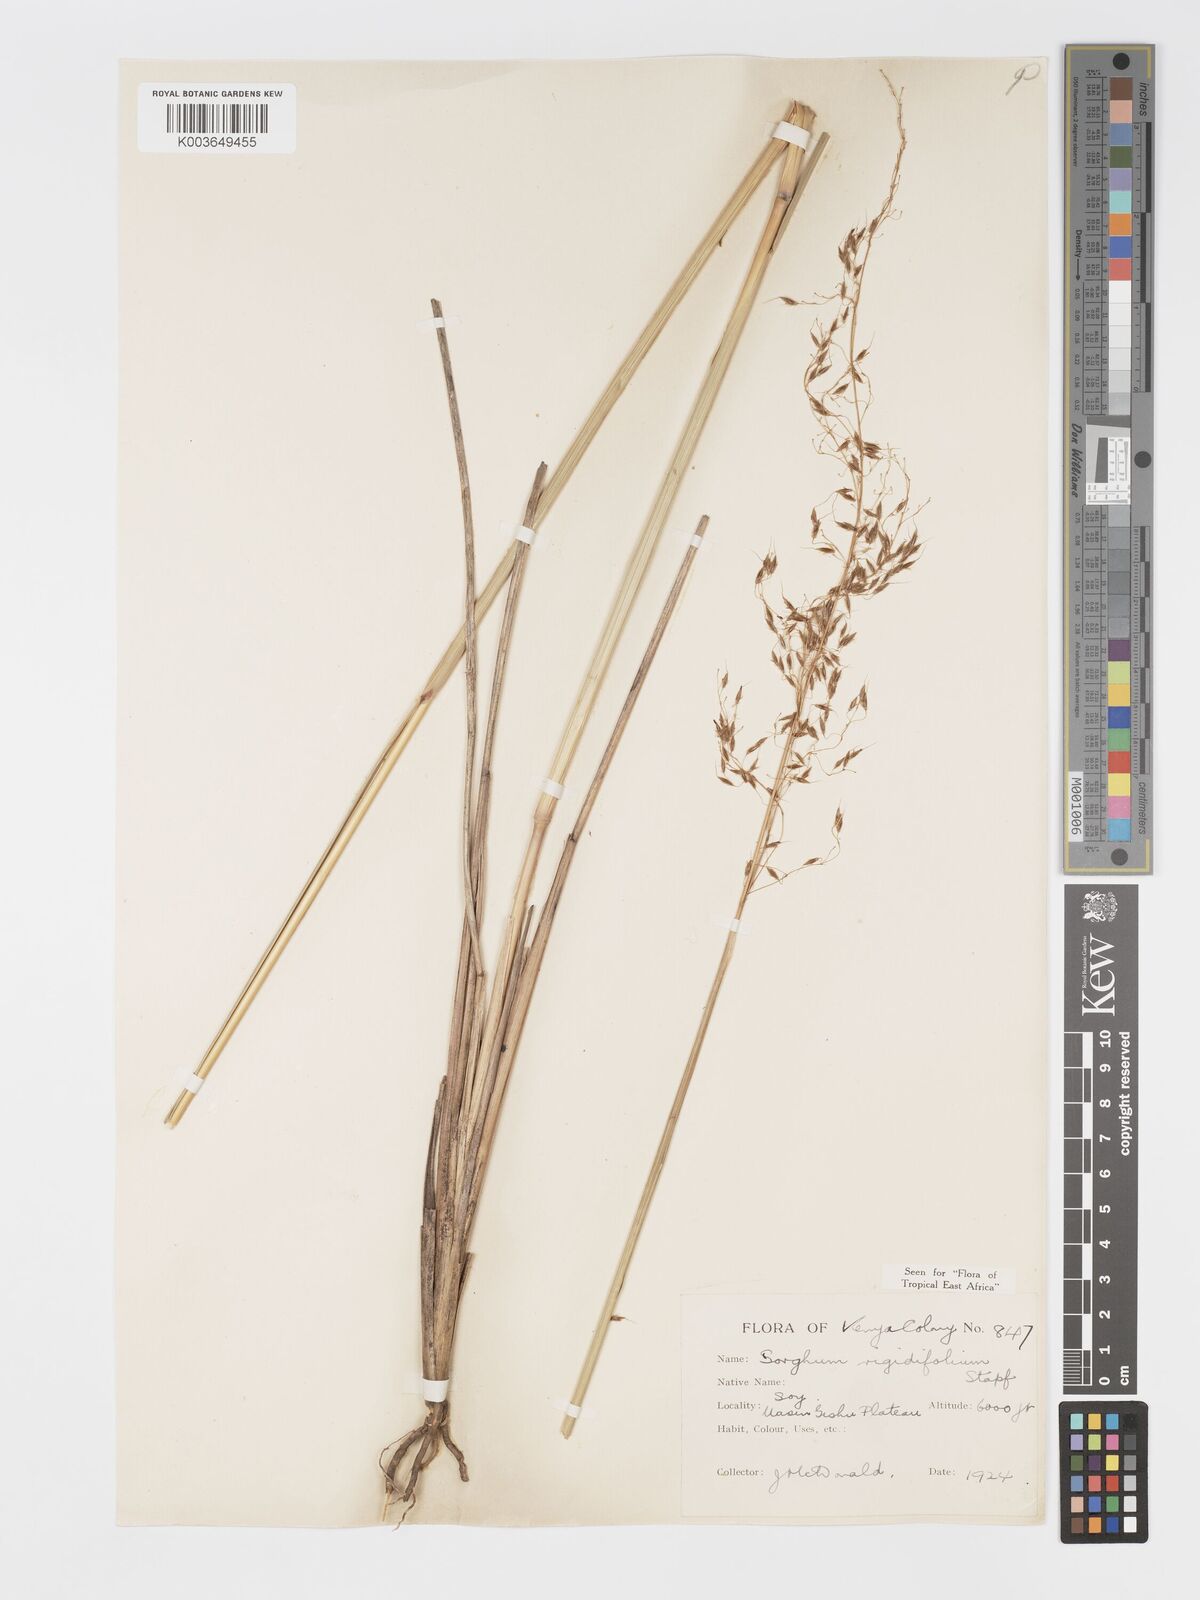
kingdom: Plantae
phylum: Tracheophyta
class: Liliopsida
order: Poales
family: Poaceae
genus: Sorghastrum
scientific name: Sorghastrum stipoides
